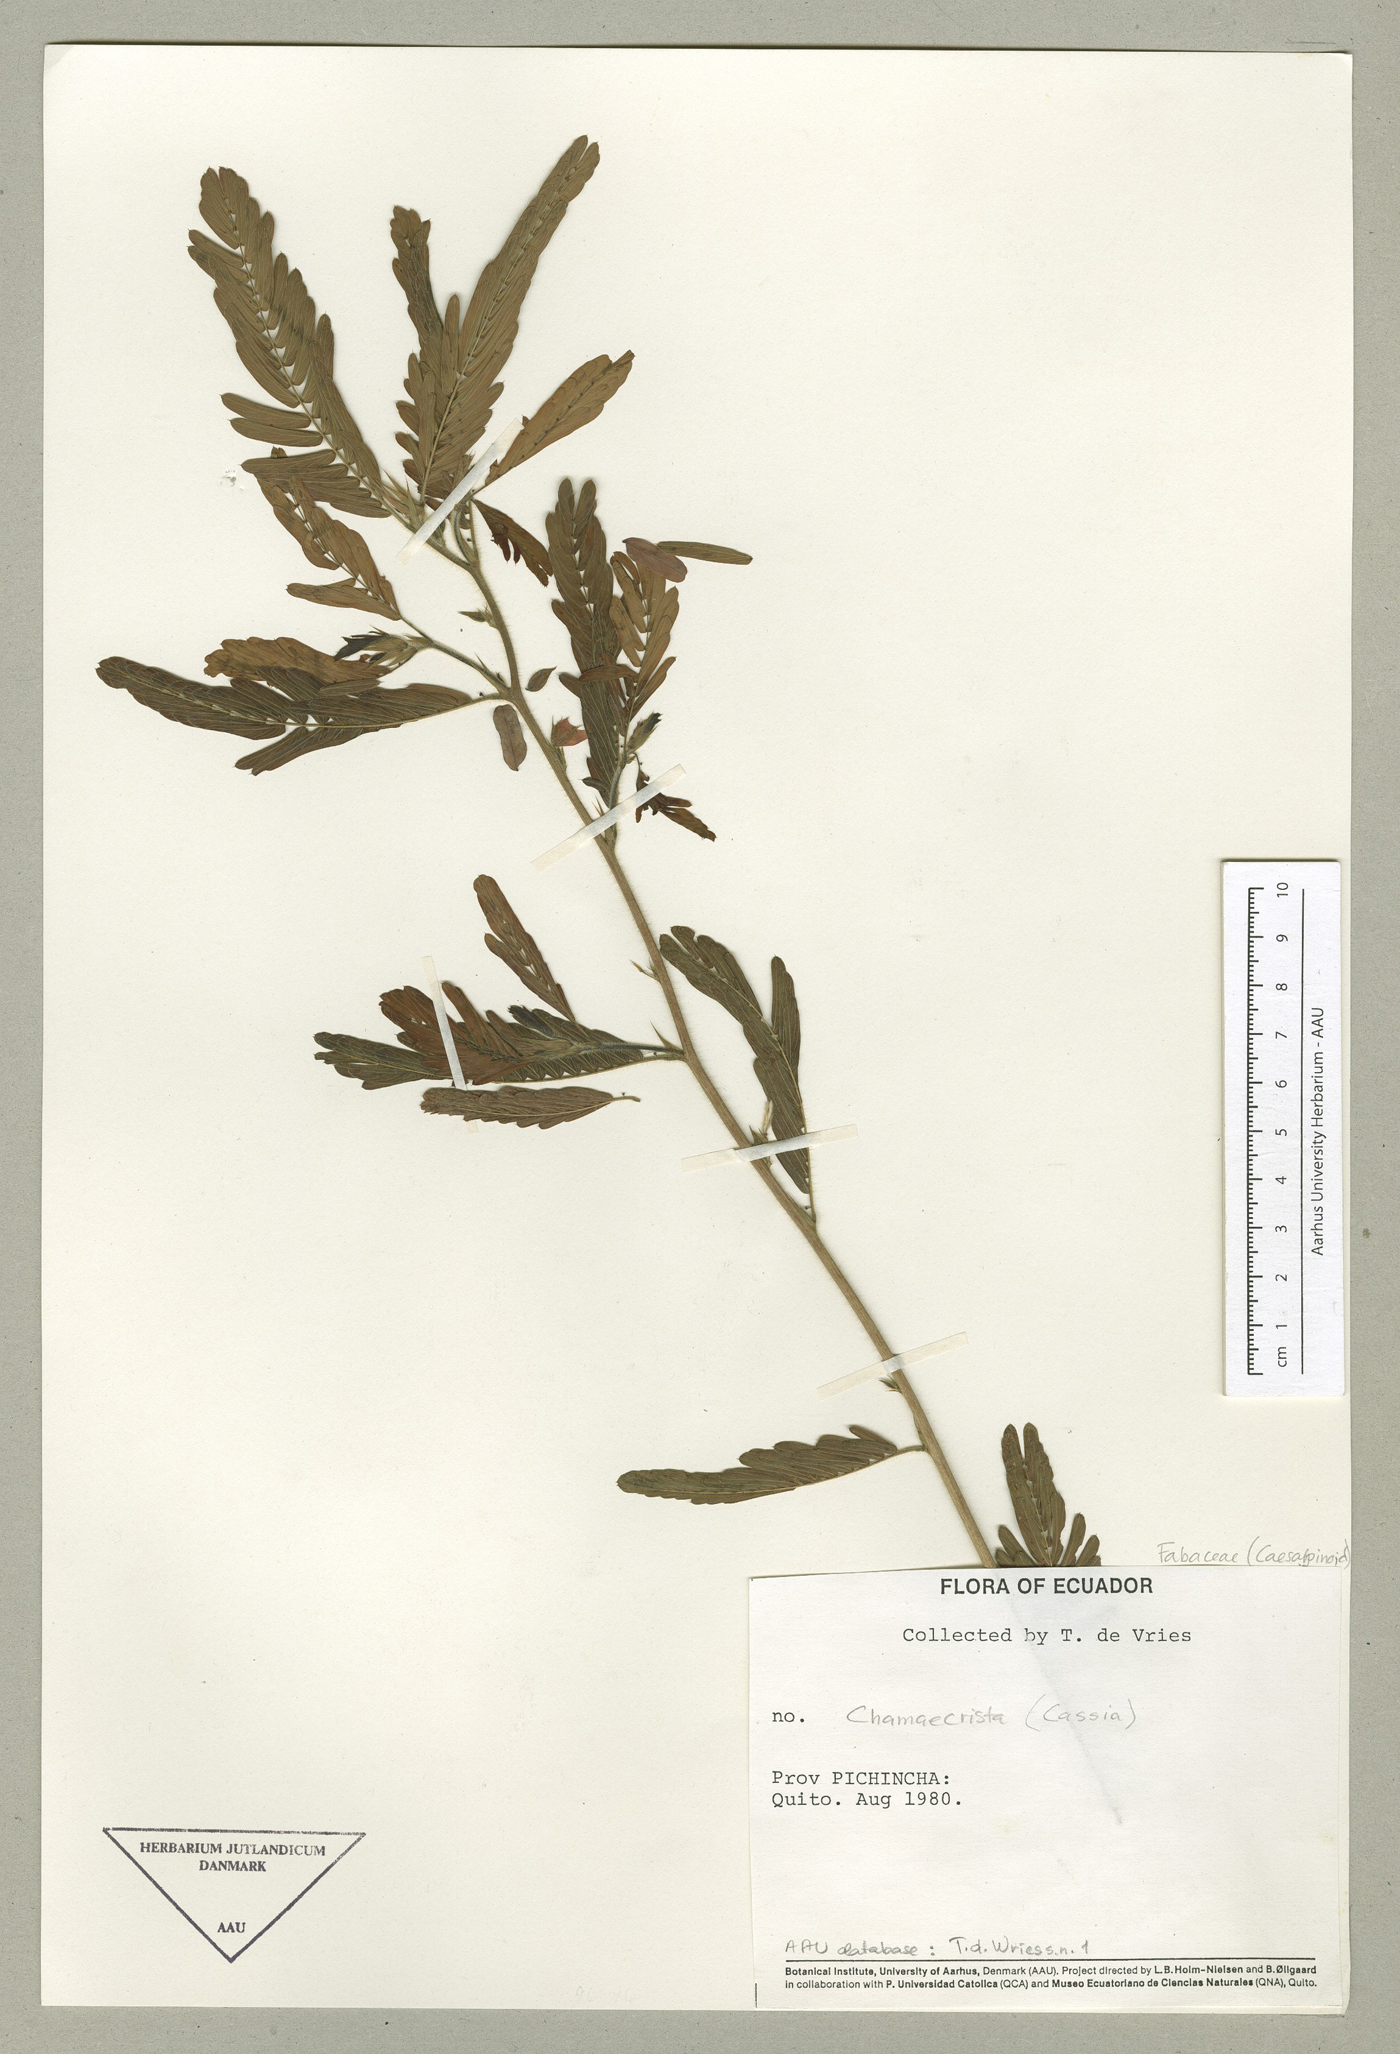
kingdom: Plantae
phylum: Tracheophyta
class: Magnoliopsida
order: Fabales
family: Fabaceae
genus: Chamaecrista
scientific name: Chamaecrista nictitans
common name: Sensitive cassia
